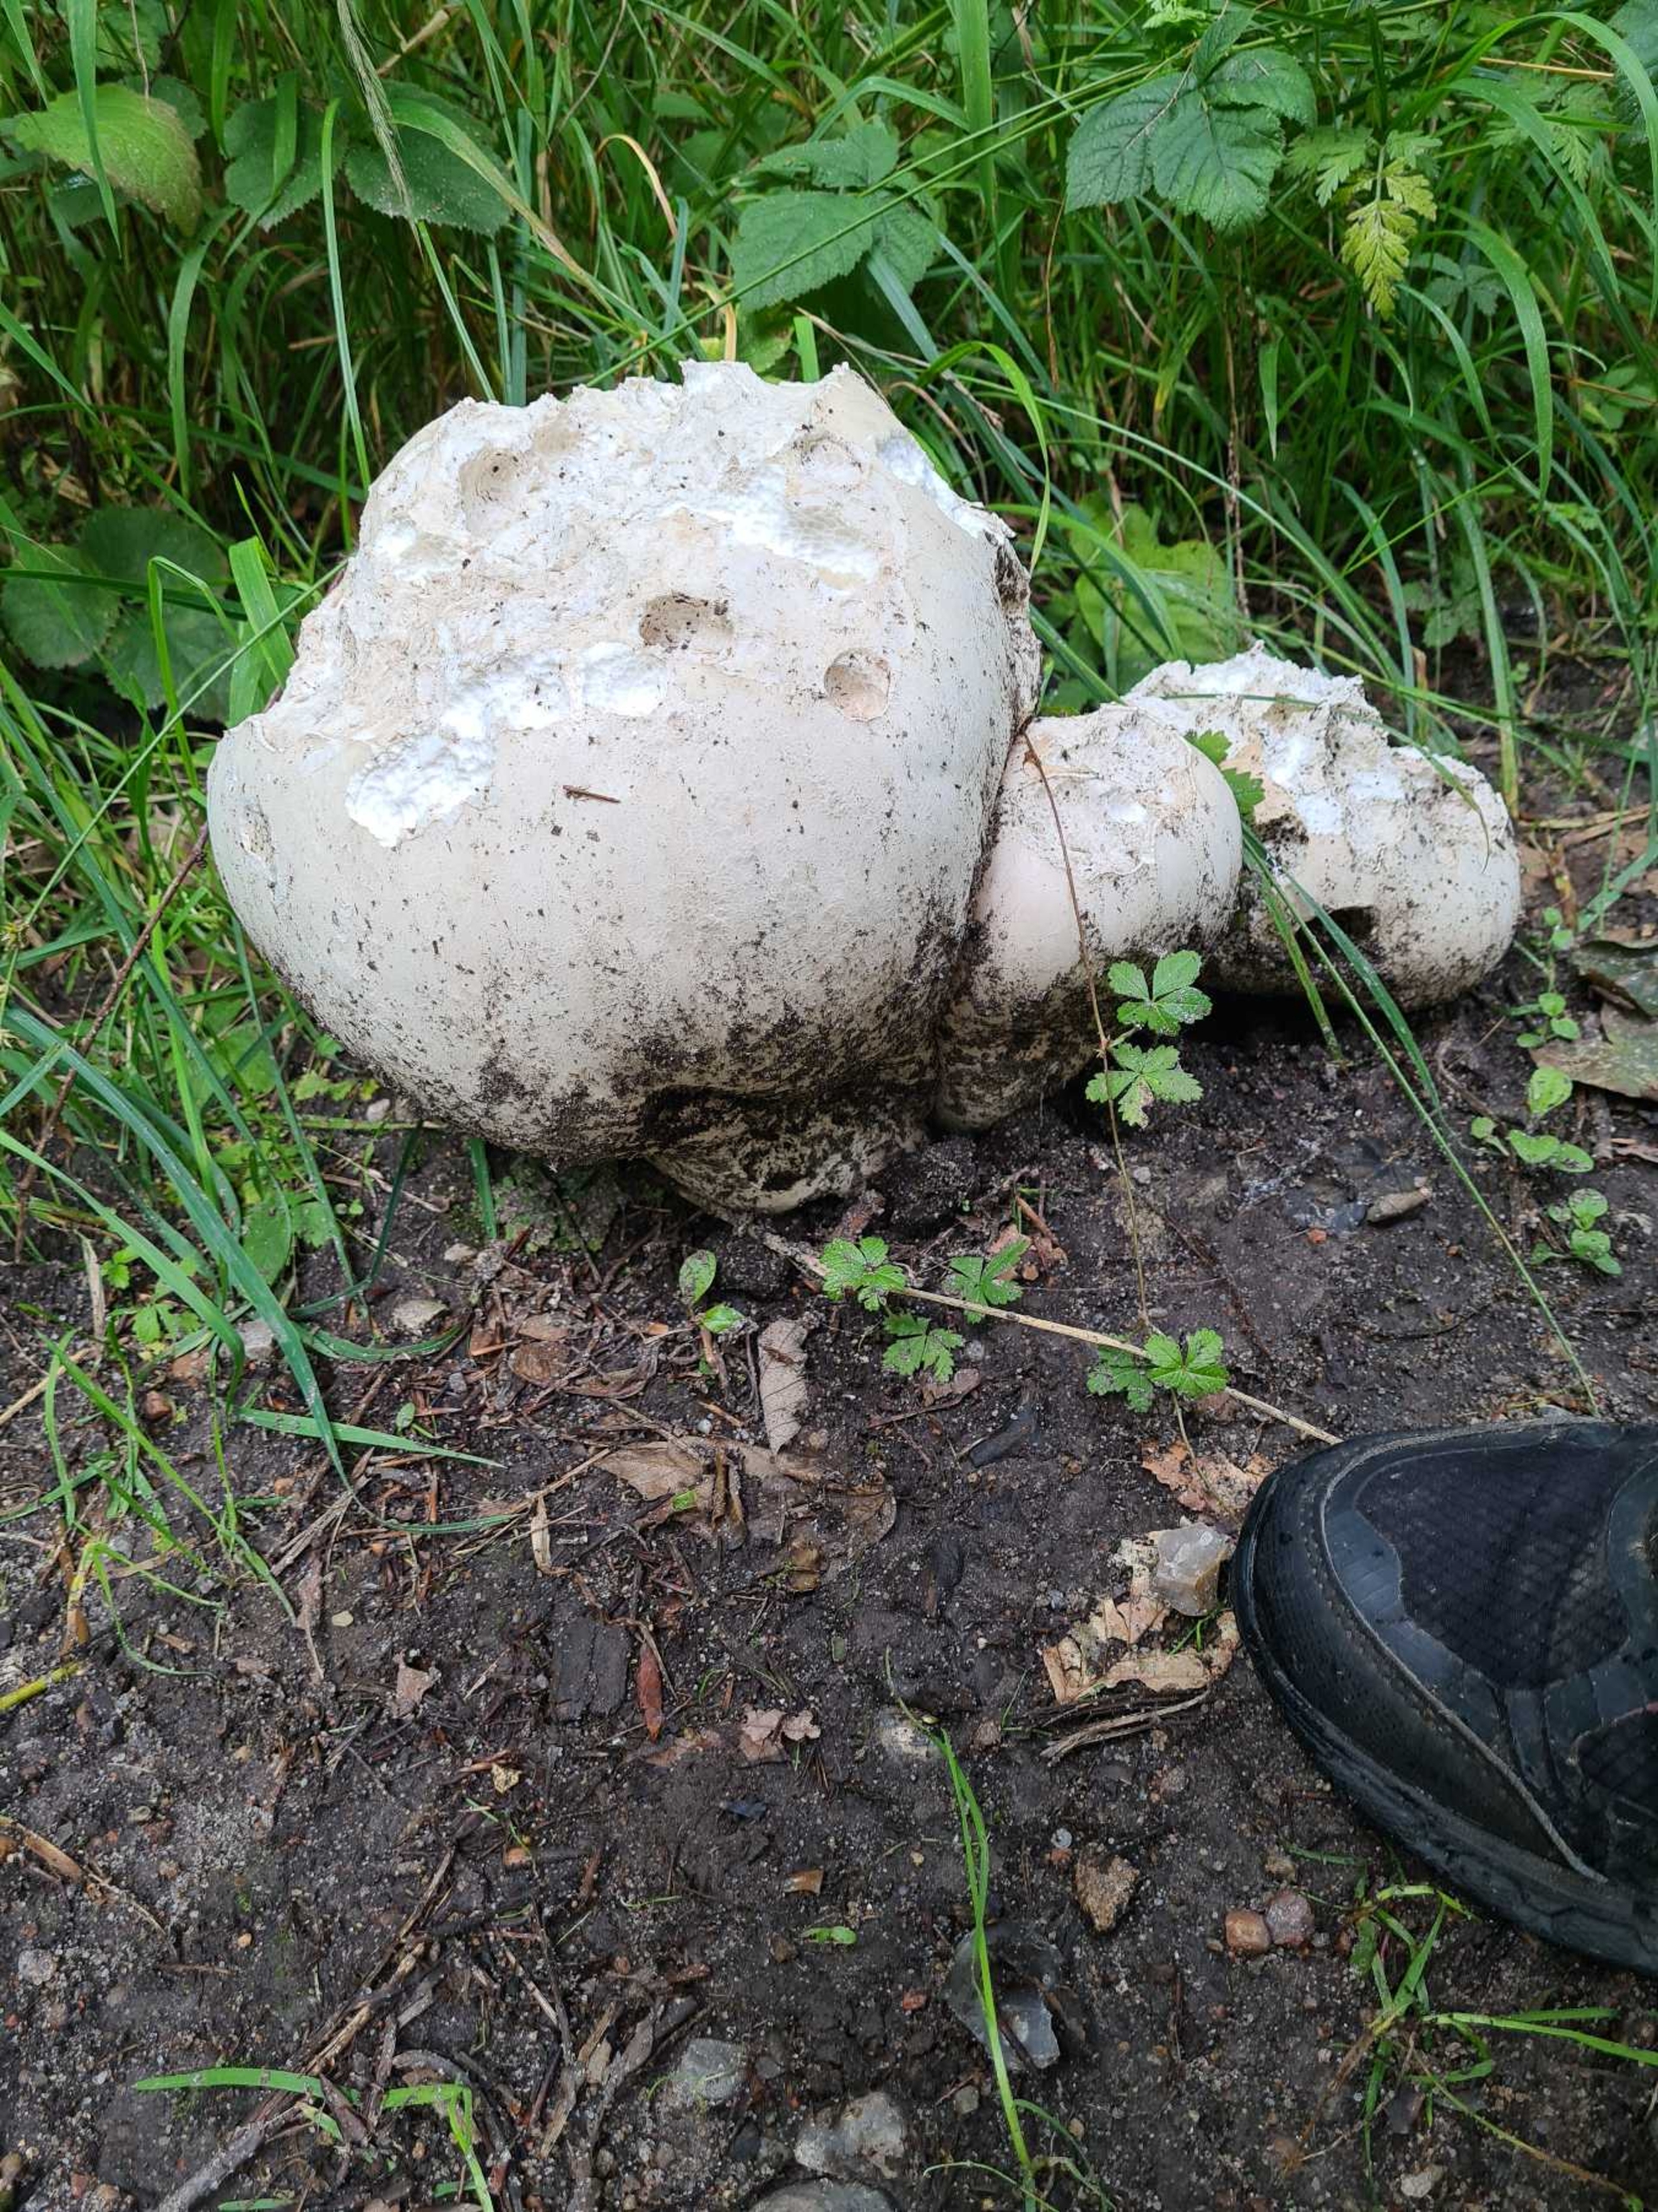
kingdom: Fungi
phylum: Basidiomycota
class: Agaricomycetes
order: Agaricales
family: Lycoperdaceae
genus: Calvatia
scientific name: Calvatia gigantea
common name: Kæmpestøvbold
